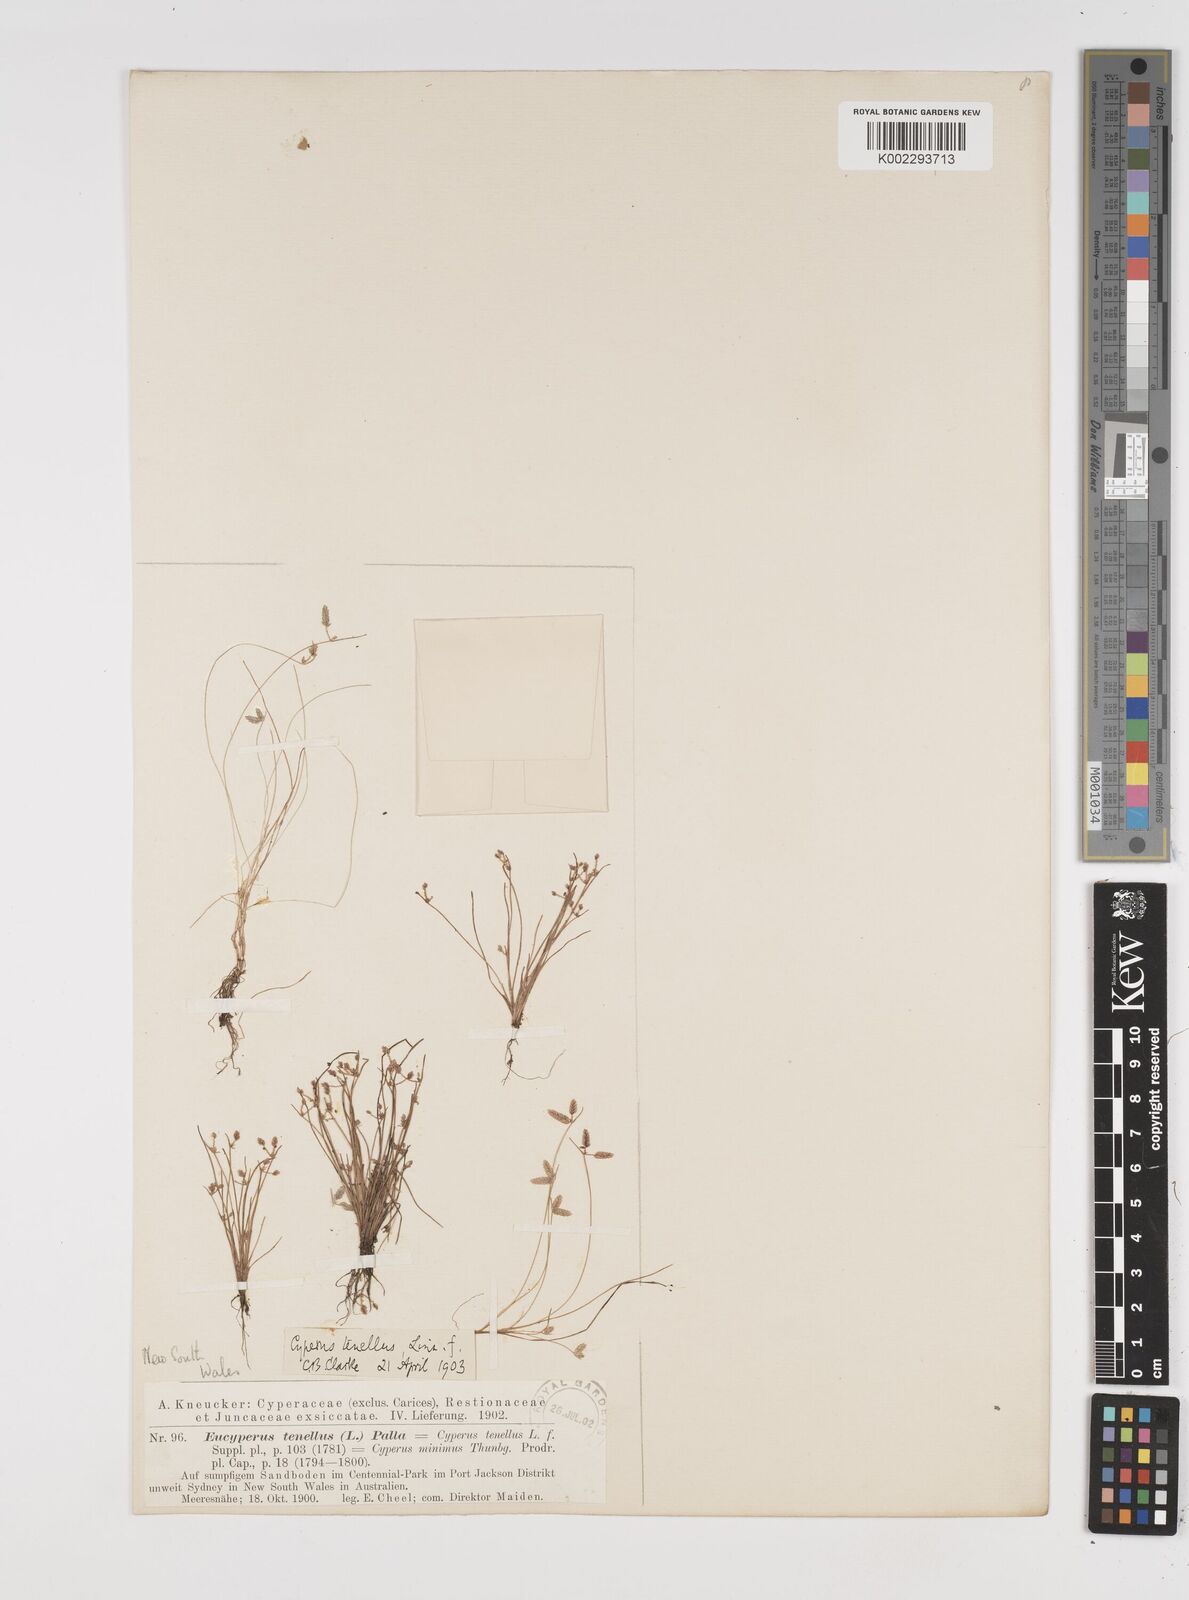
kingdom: Plantae
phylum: Tracheophyta
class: Liliopsida
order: Poales
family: Cyperaceae
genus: Isolepis
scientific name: Isolepis levynsiana
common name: Sedge
